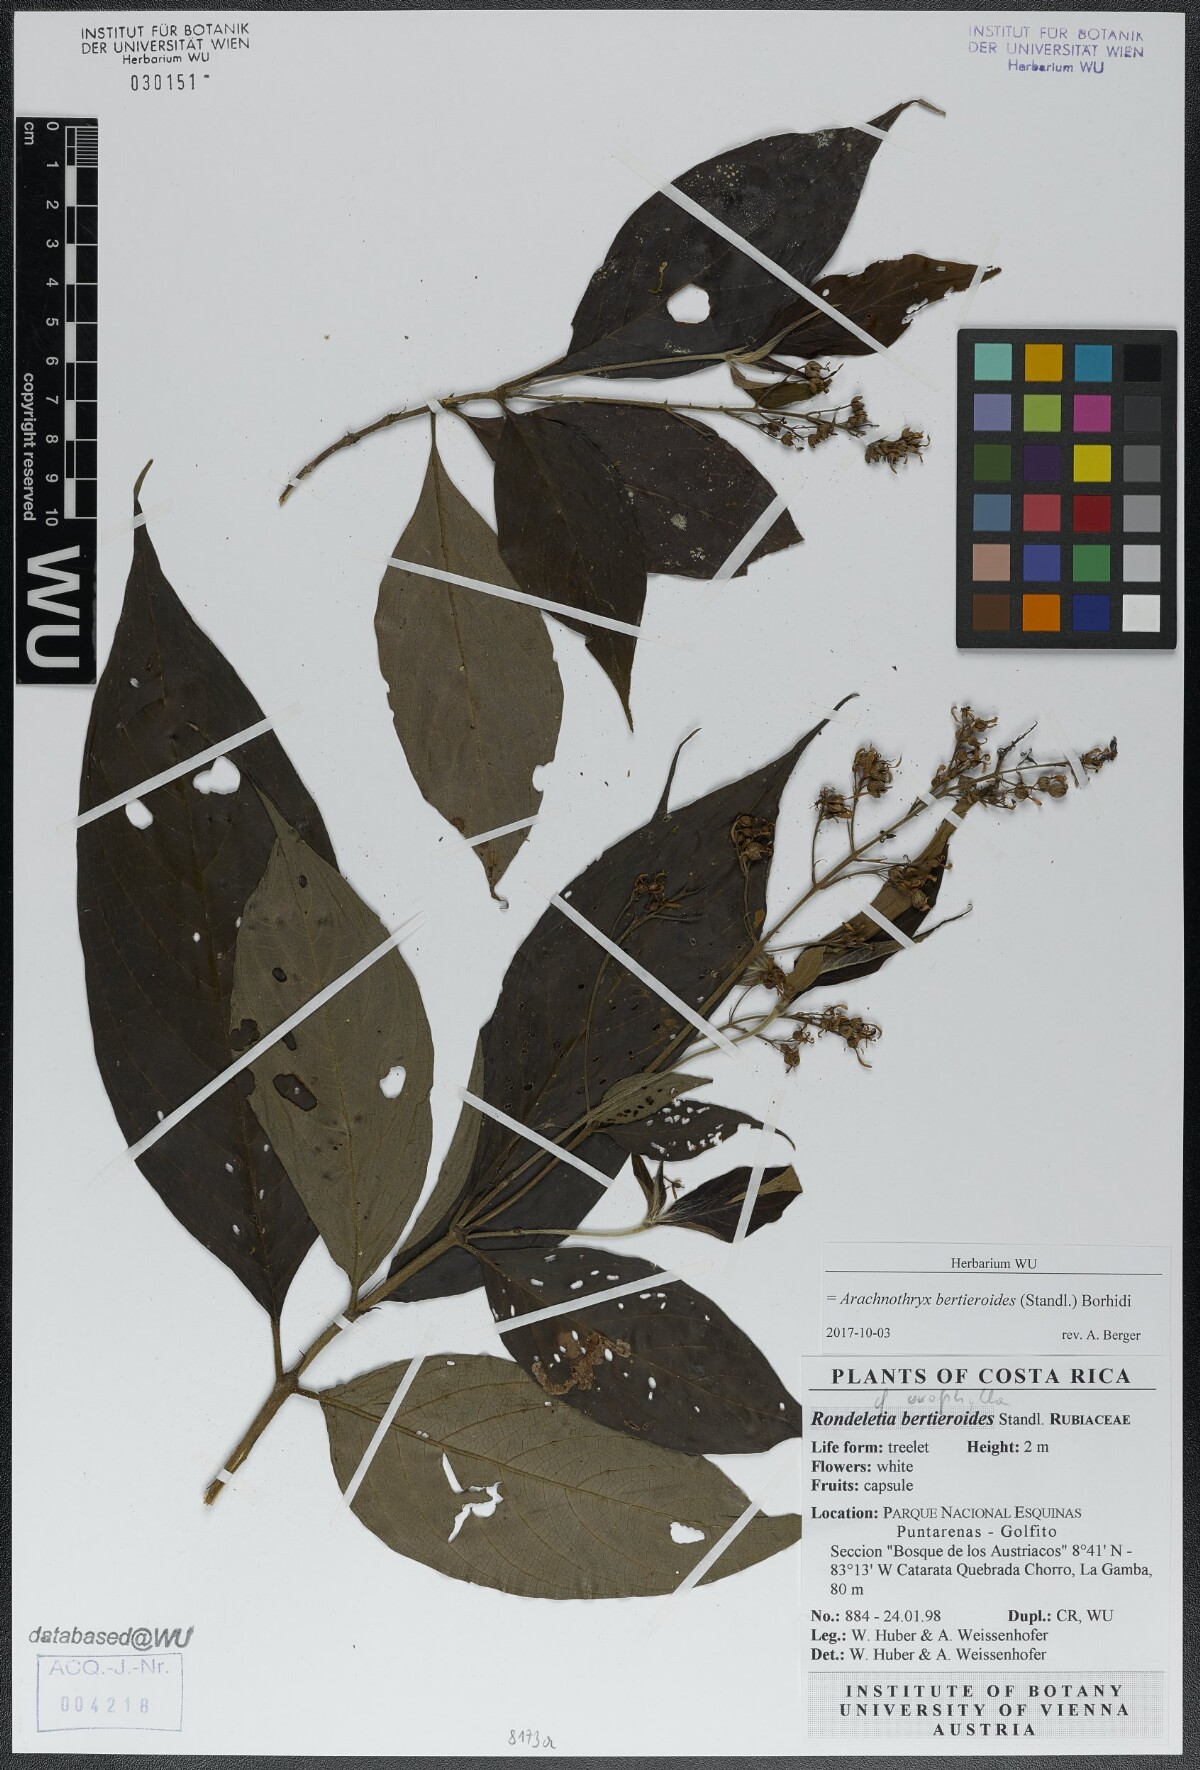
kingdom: Plantae
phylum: Tracheophyta
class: Magnoliopsida
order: Gentianales
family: Rubiaceae
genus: Arachnothryx
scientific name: Arachnothryx bertieroides
